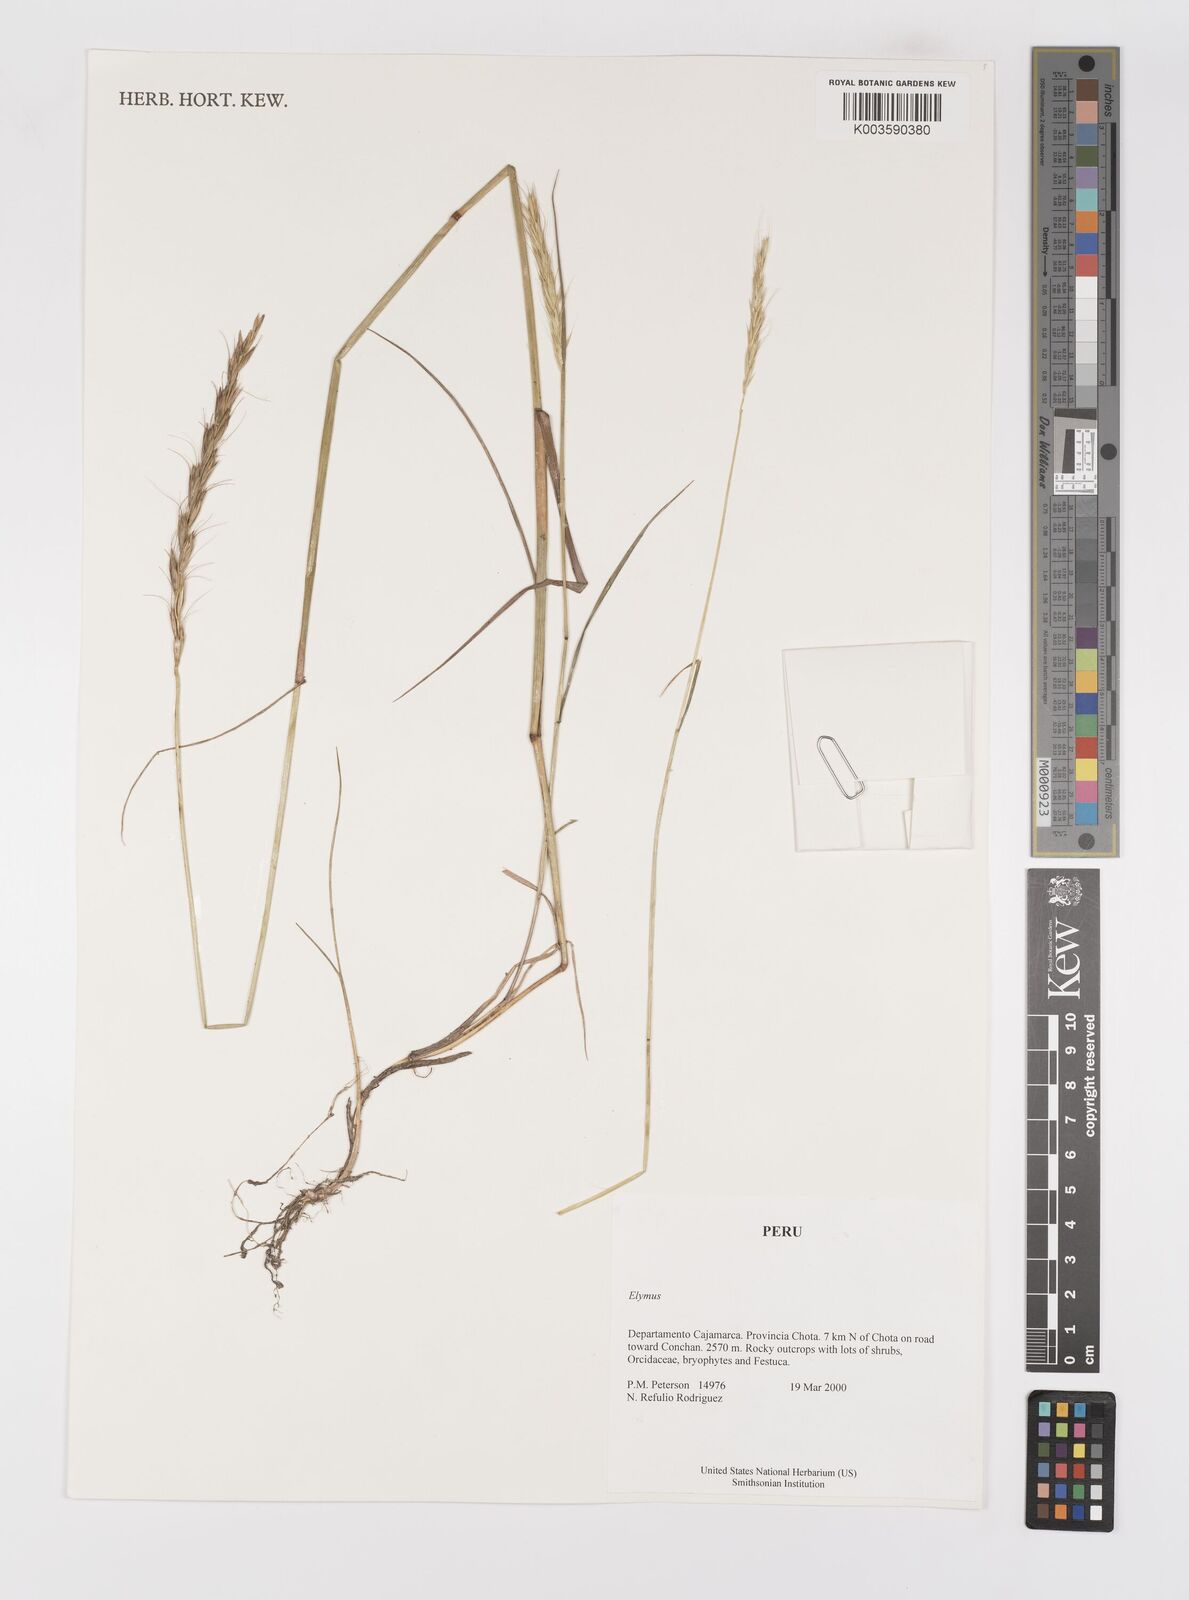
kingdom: Plantae
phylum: Tracheophyta
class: Liliopsida
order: Poales
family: Poaceae
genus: Elymus
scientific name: Elymus angulatus
